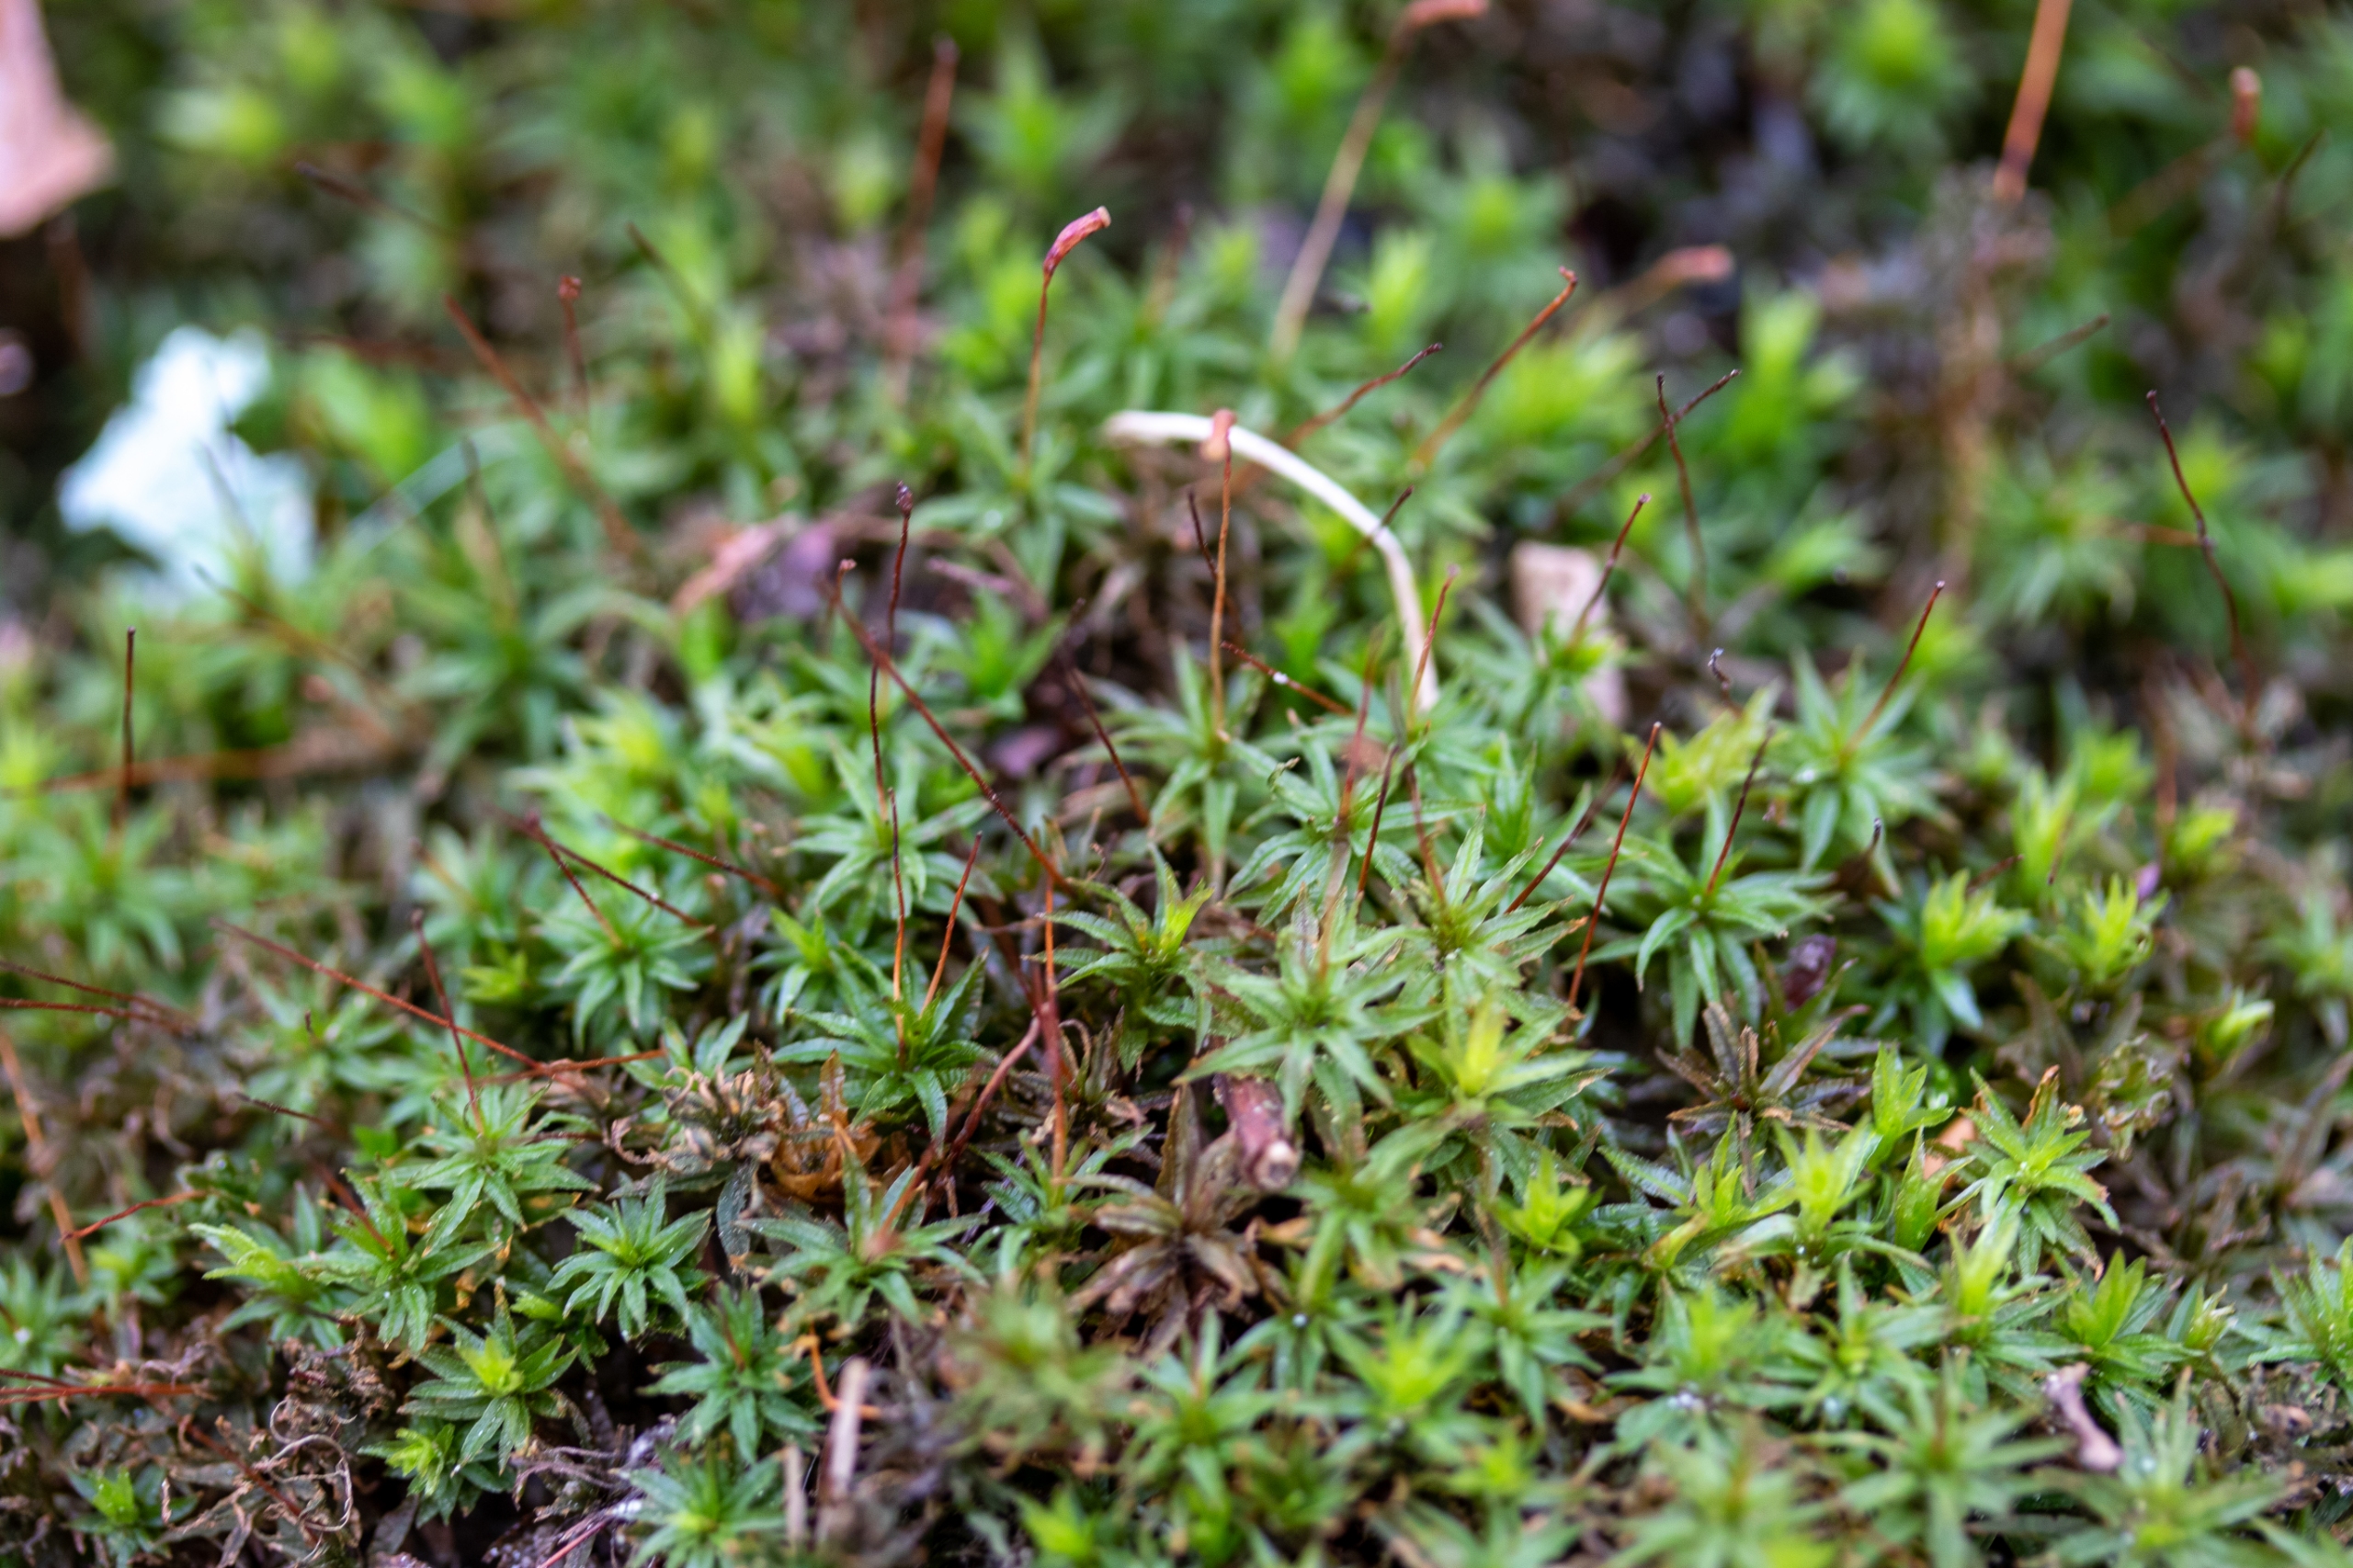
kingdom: Plantae
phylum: Bryophyta
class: Polytrichopsida
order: Polytrichales
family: Polytrichaceae
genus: Atrichum
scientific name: Atrichum undulatum
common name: Bølget katrinemos
